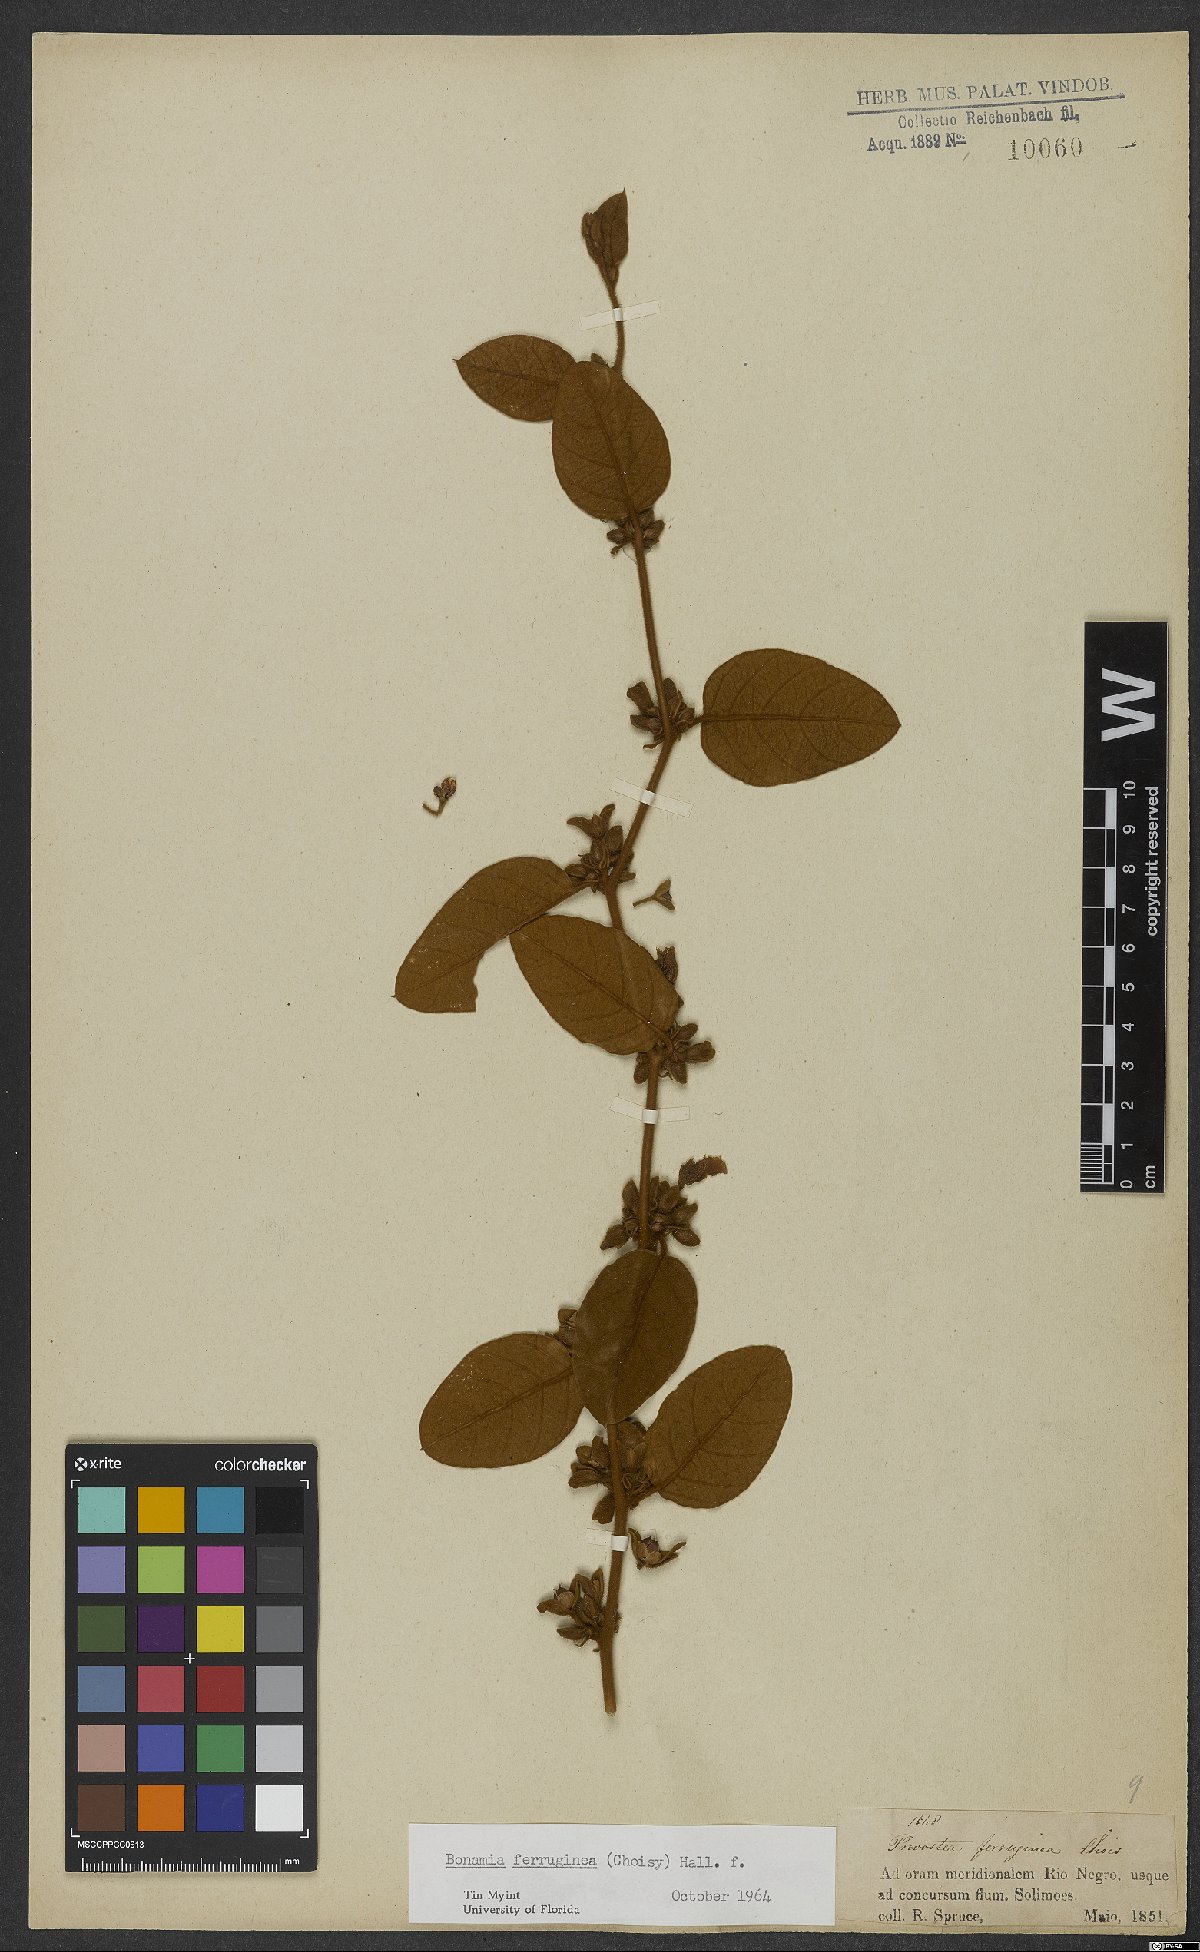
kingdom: Plantae
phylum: Tracheophyta
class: Magnoliopsida
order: Solanales
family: Convolvulaceae
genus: Bonamia
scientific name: Bonamia ferruginea
